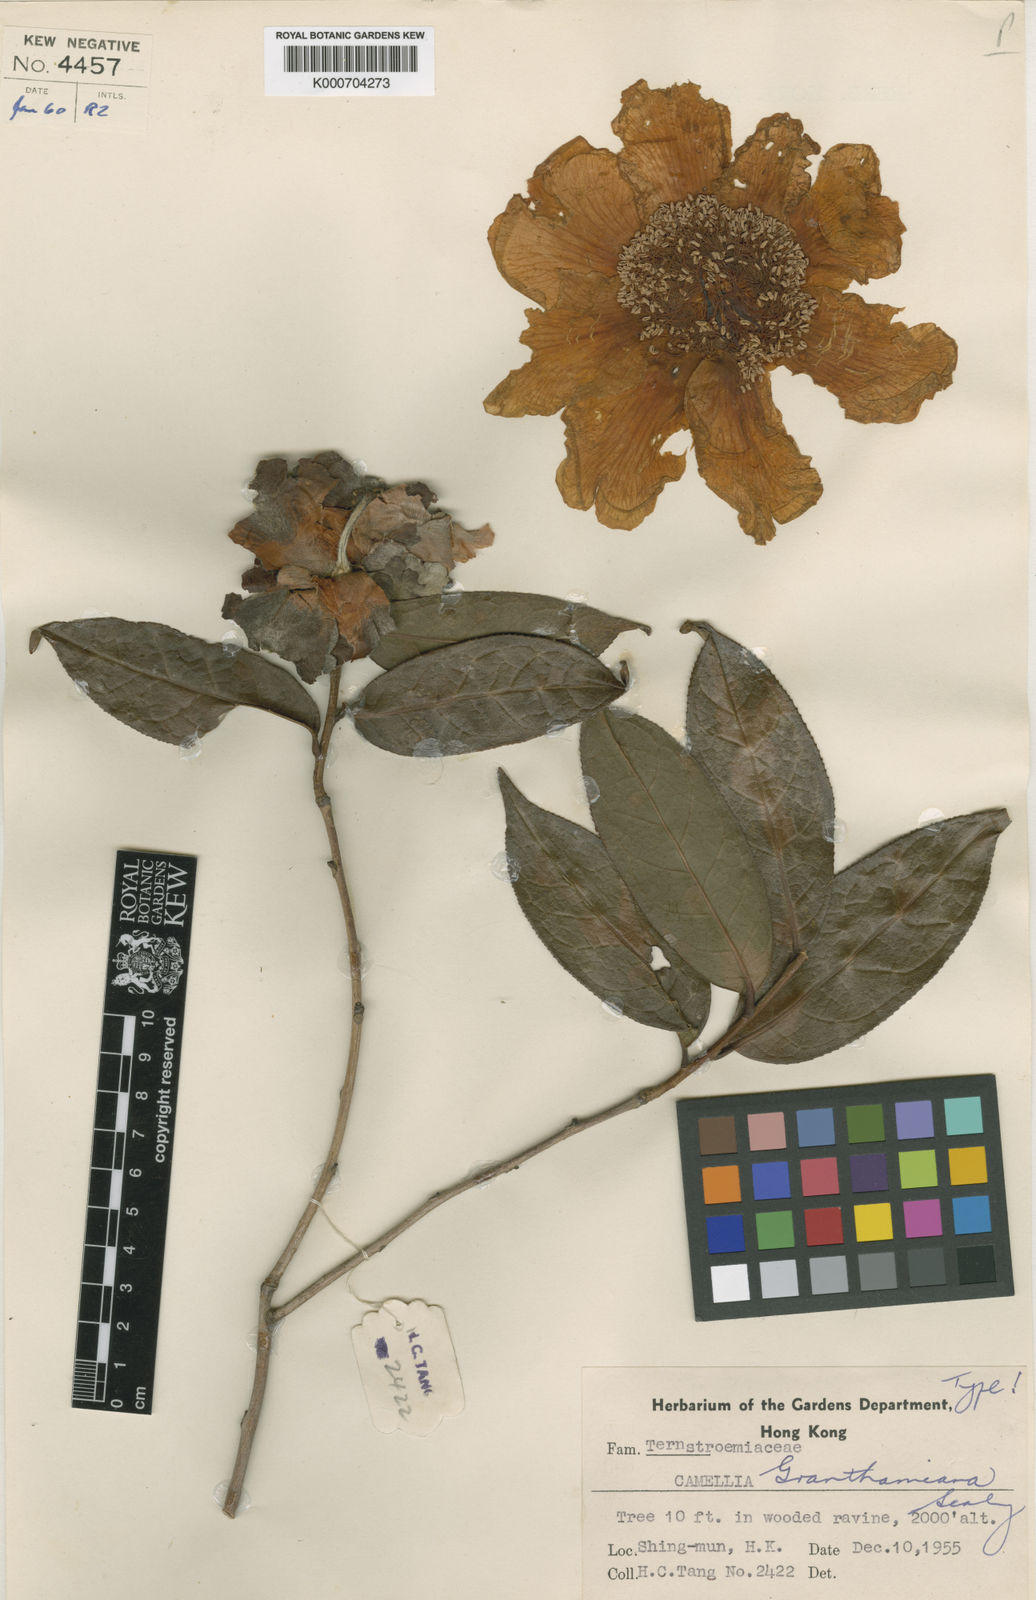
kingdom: Plantae
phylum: Tracheophyta
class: Magnoliopsida
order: Ericales
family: Theaceae
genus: Camellia
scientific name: Camellia granthamiana
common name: Grantham's camellia
